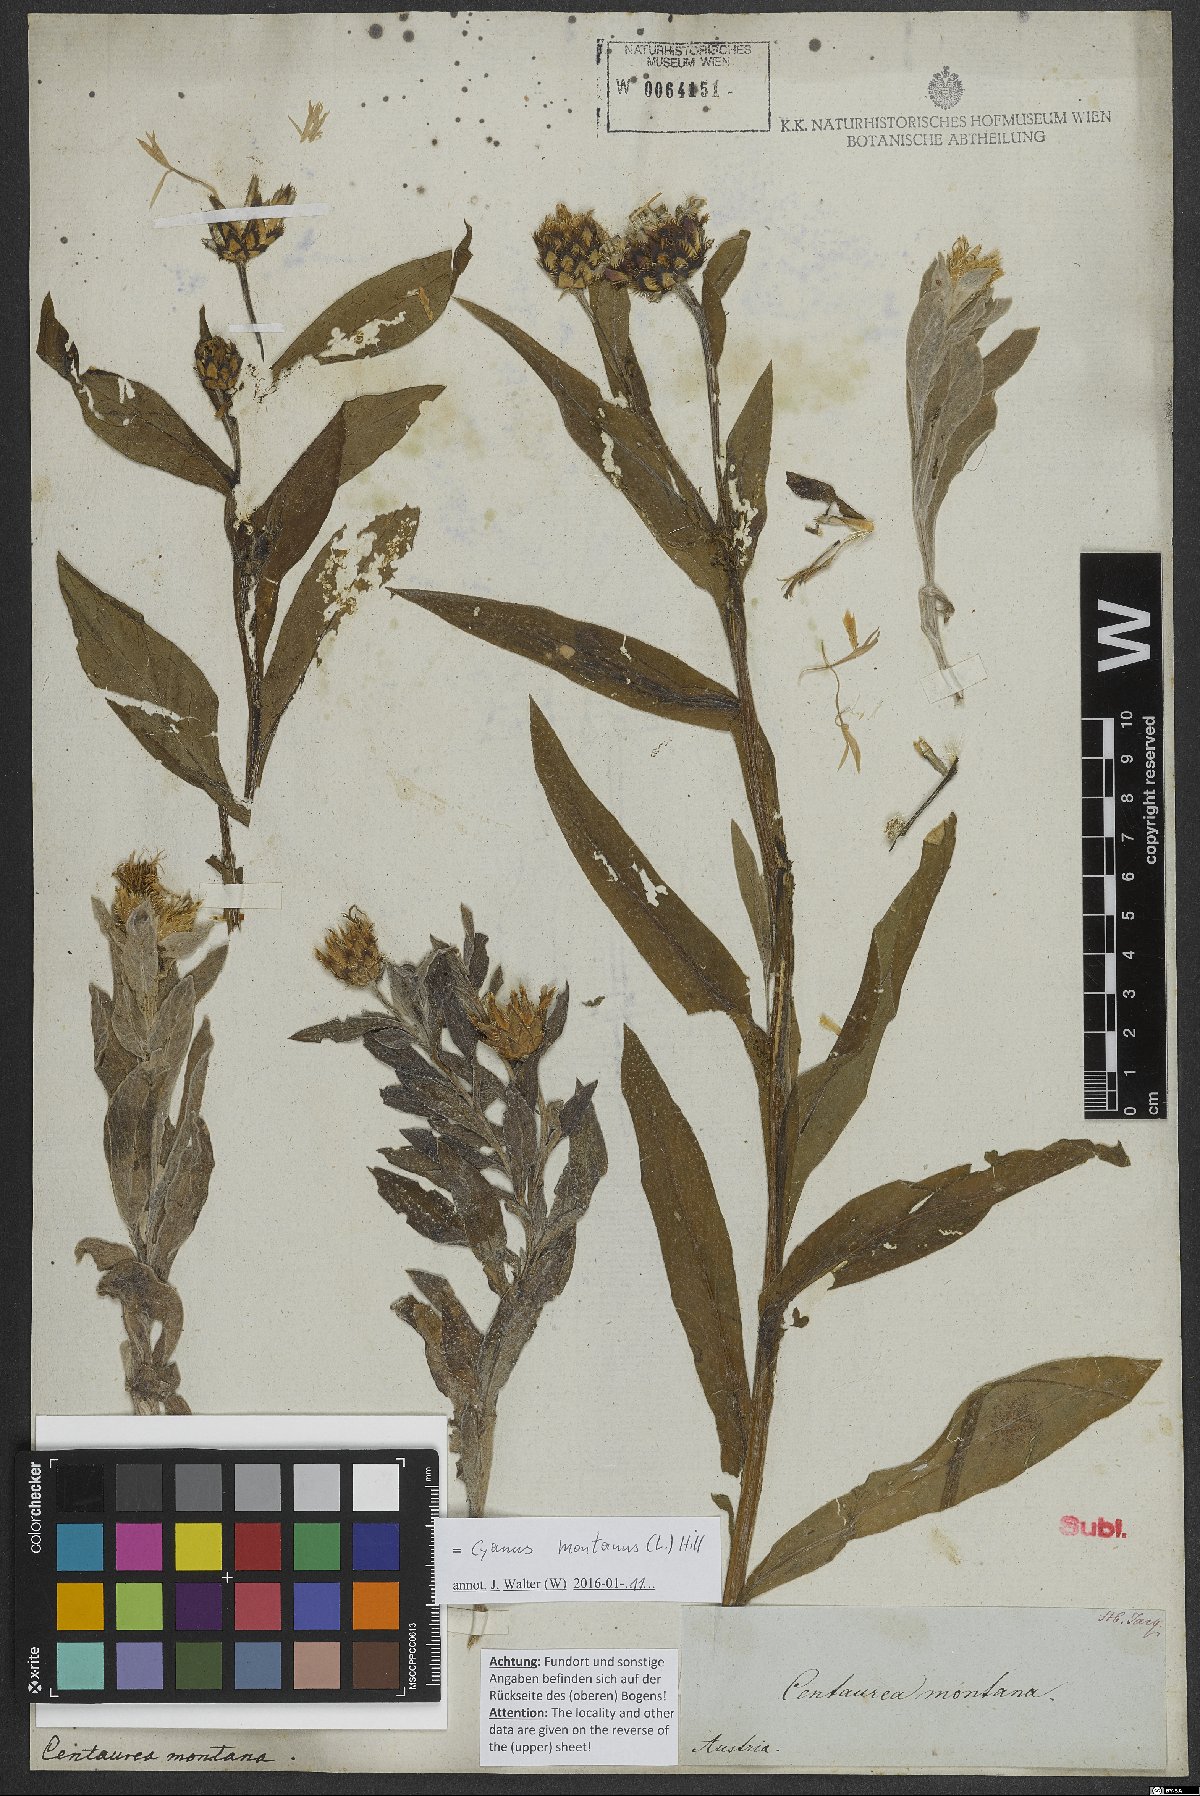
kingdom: Plantae
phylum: Tracheophyta
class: Magnoliopsida
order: Asterales
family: Asteraceae
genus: Centaurea
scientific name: Centaurea montana
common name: Perennial cornflower
